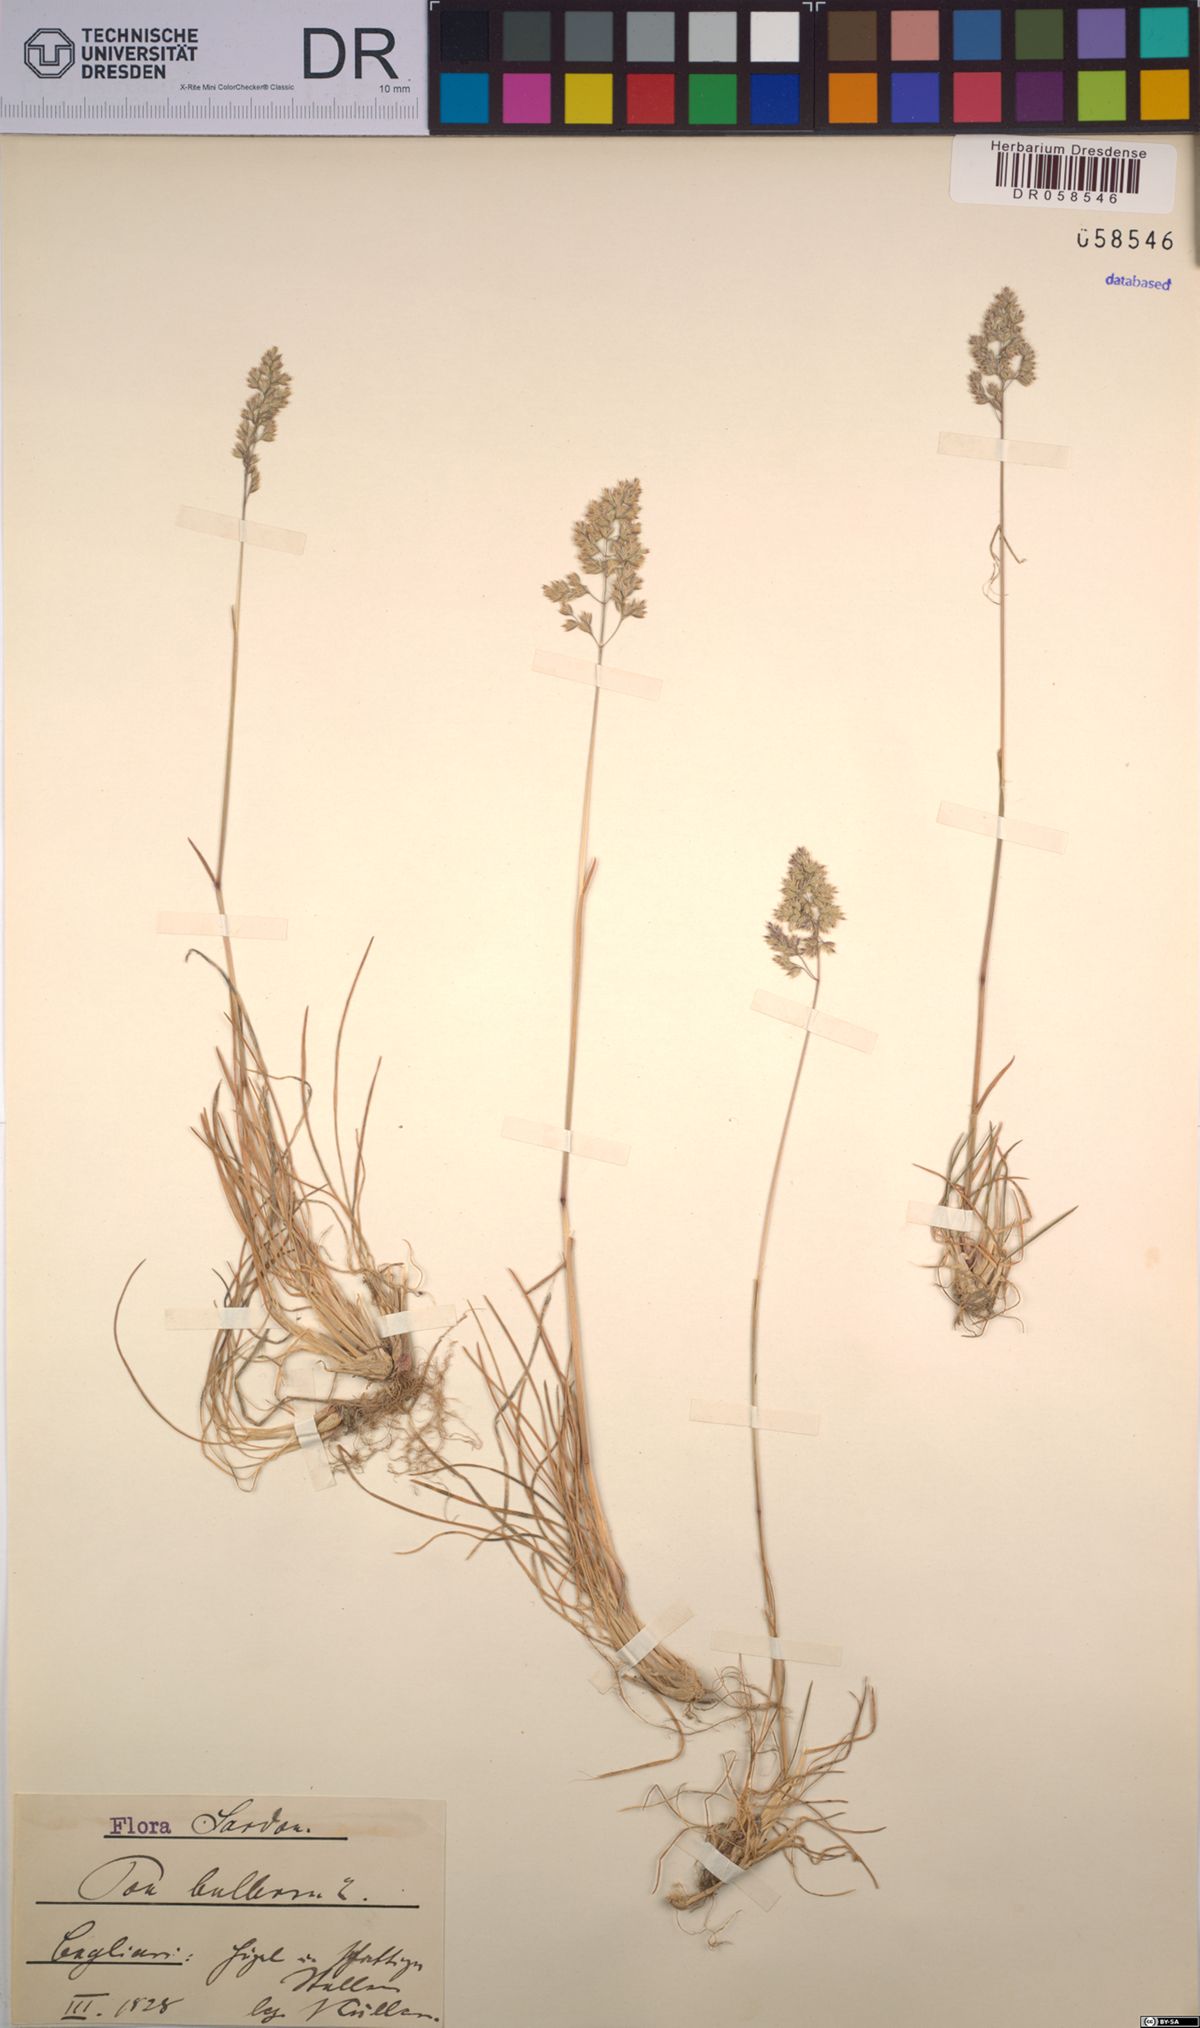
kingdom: Plantae
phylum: Tracheophyta
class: Liliopsida
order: Poales
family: Poaceae
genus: Poa
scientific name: Poa bulbosa
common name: Bulbous bluegrass
